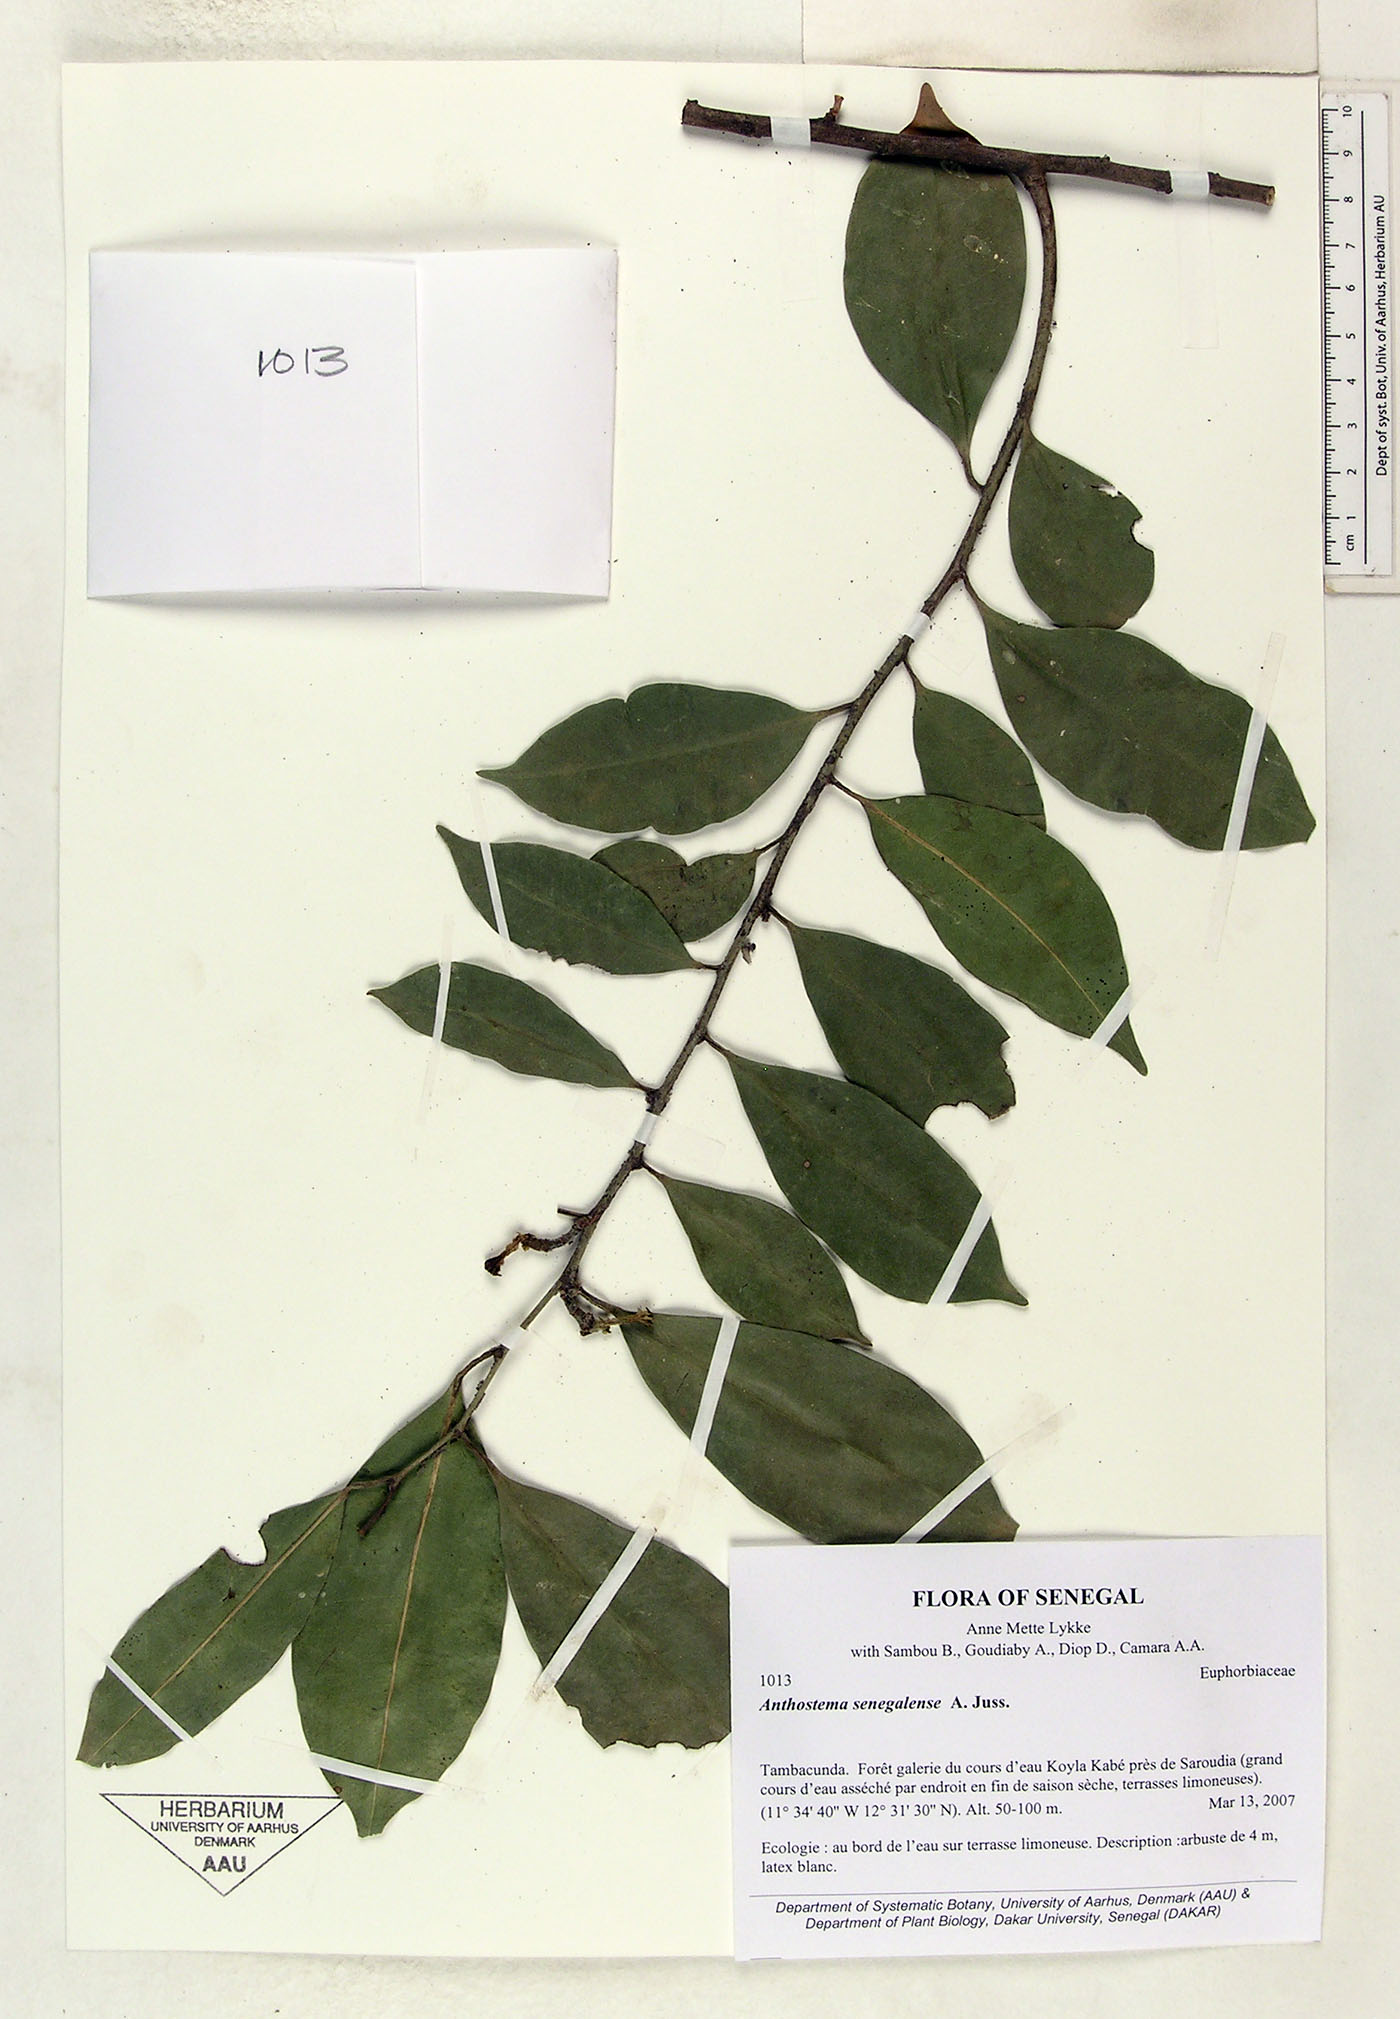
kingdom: Plantae
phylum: Tracheophyta
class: Magnoliopsida
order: Malpighiales
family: Euphorbiaceae
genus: Anthostema
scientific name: Anthostema senegalense
